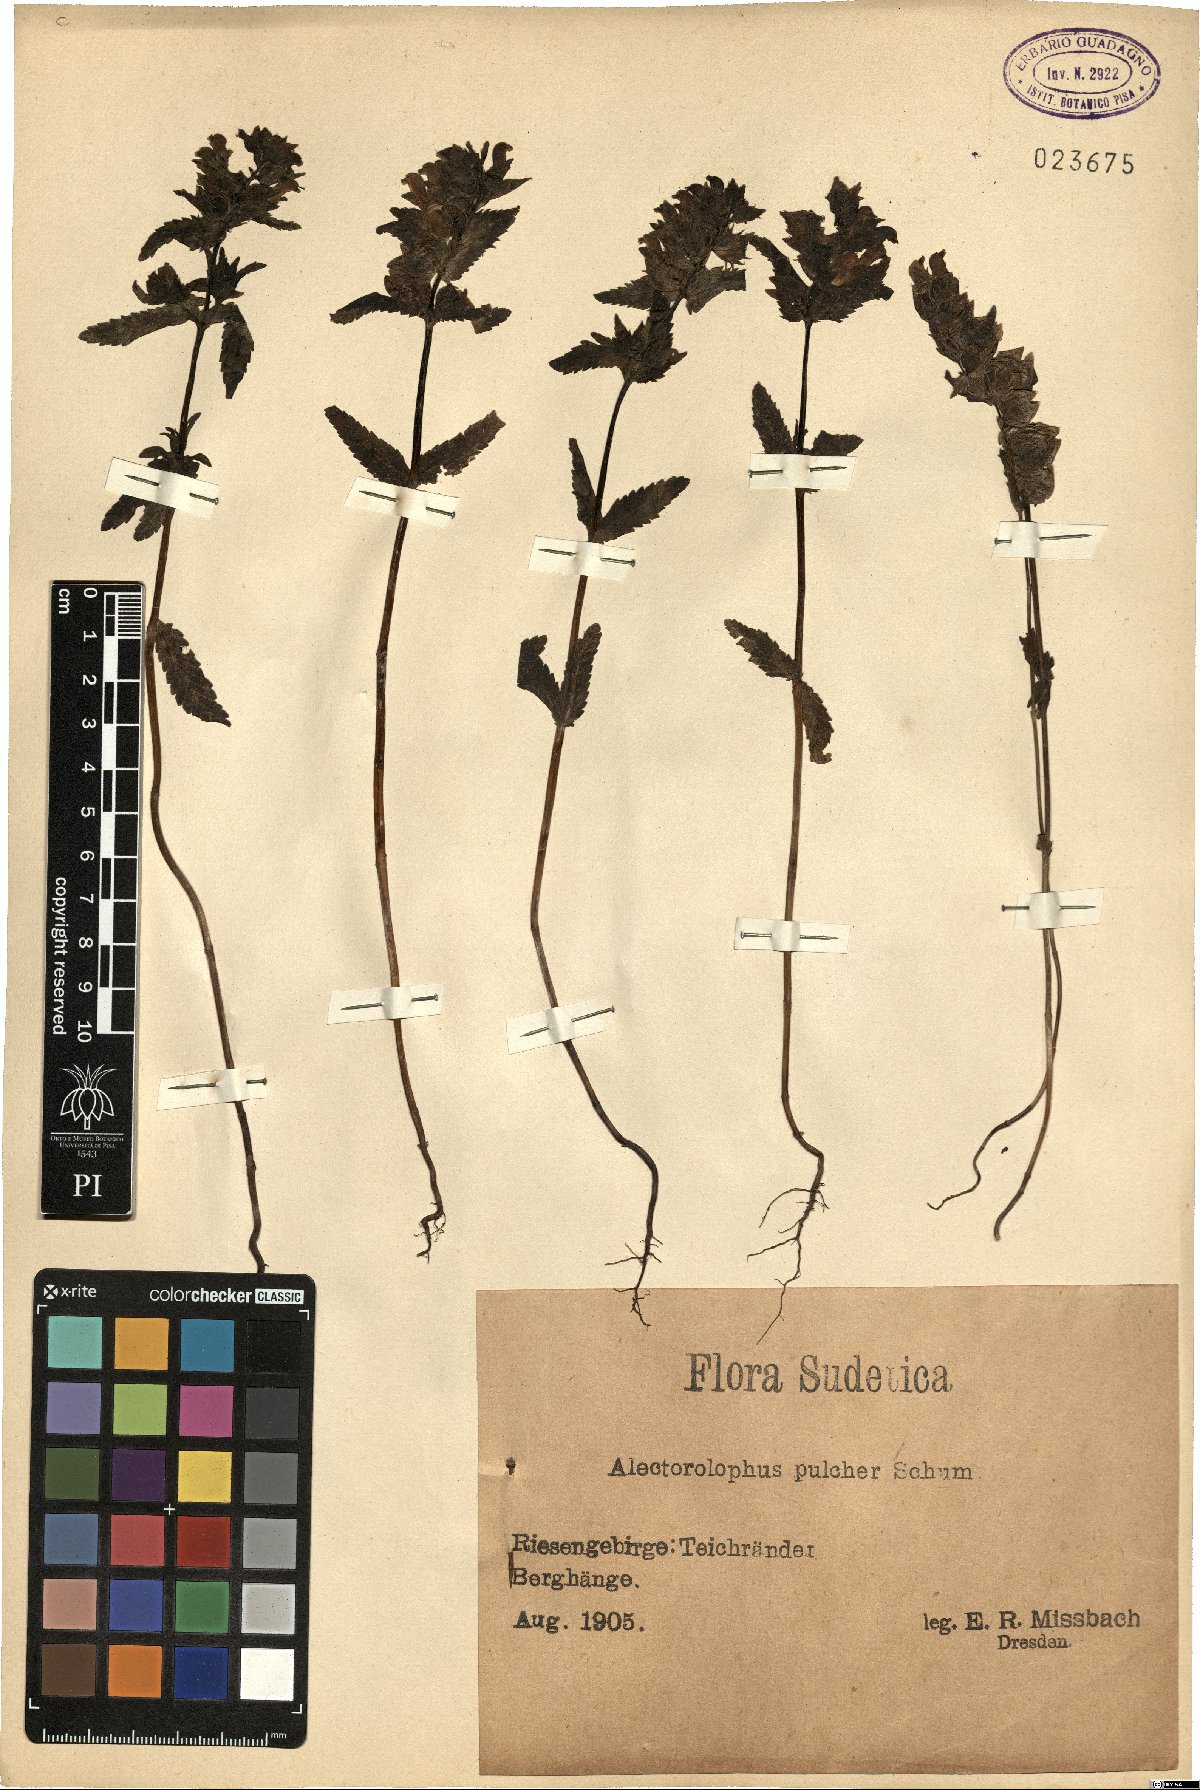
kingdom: Plantae
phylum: Tracheophyta
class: Magnoliopsida
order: Lamiales
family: Orobanchaceae
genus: Rhinanthus
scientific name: Rhinanthus riphaeus
